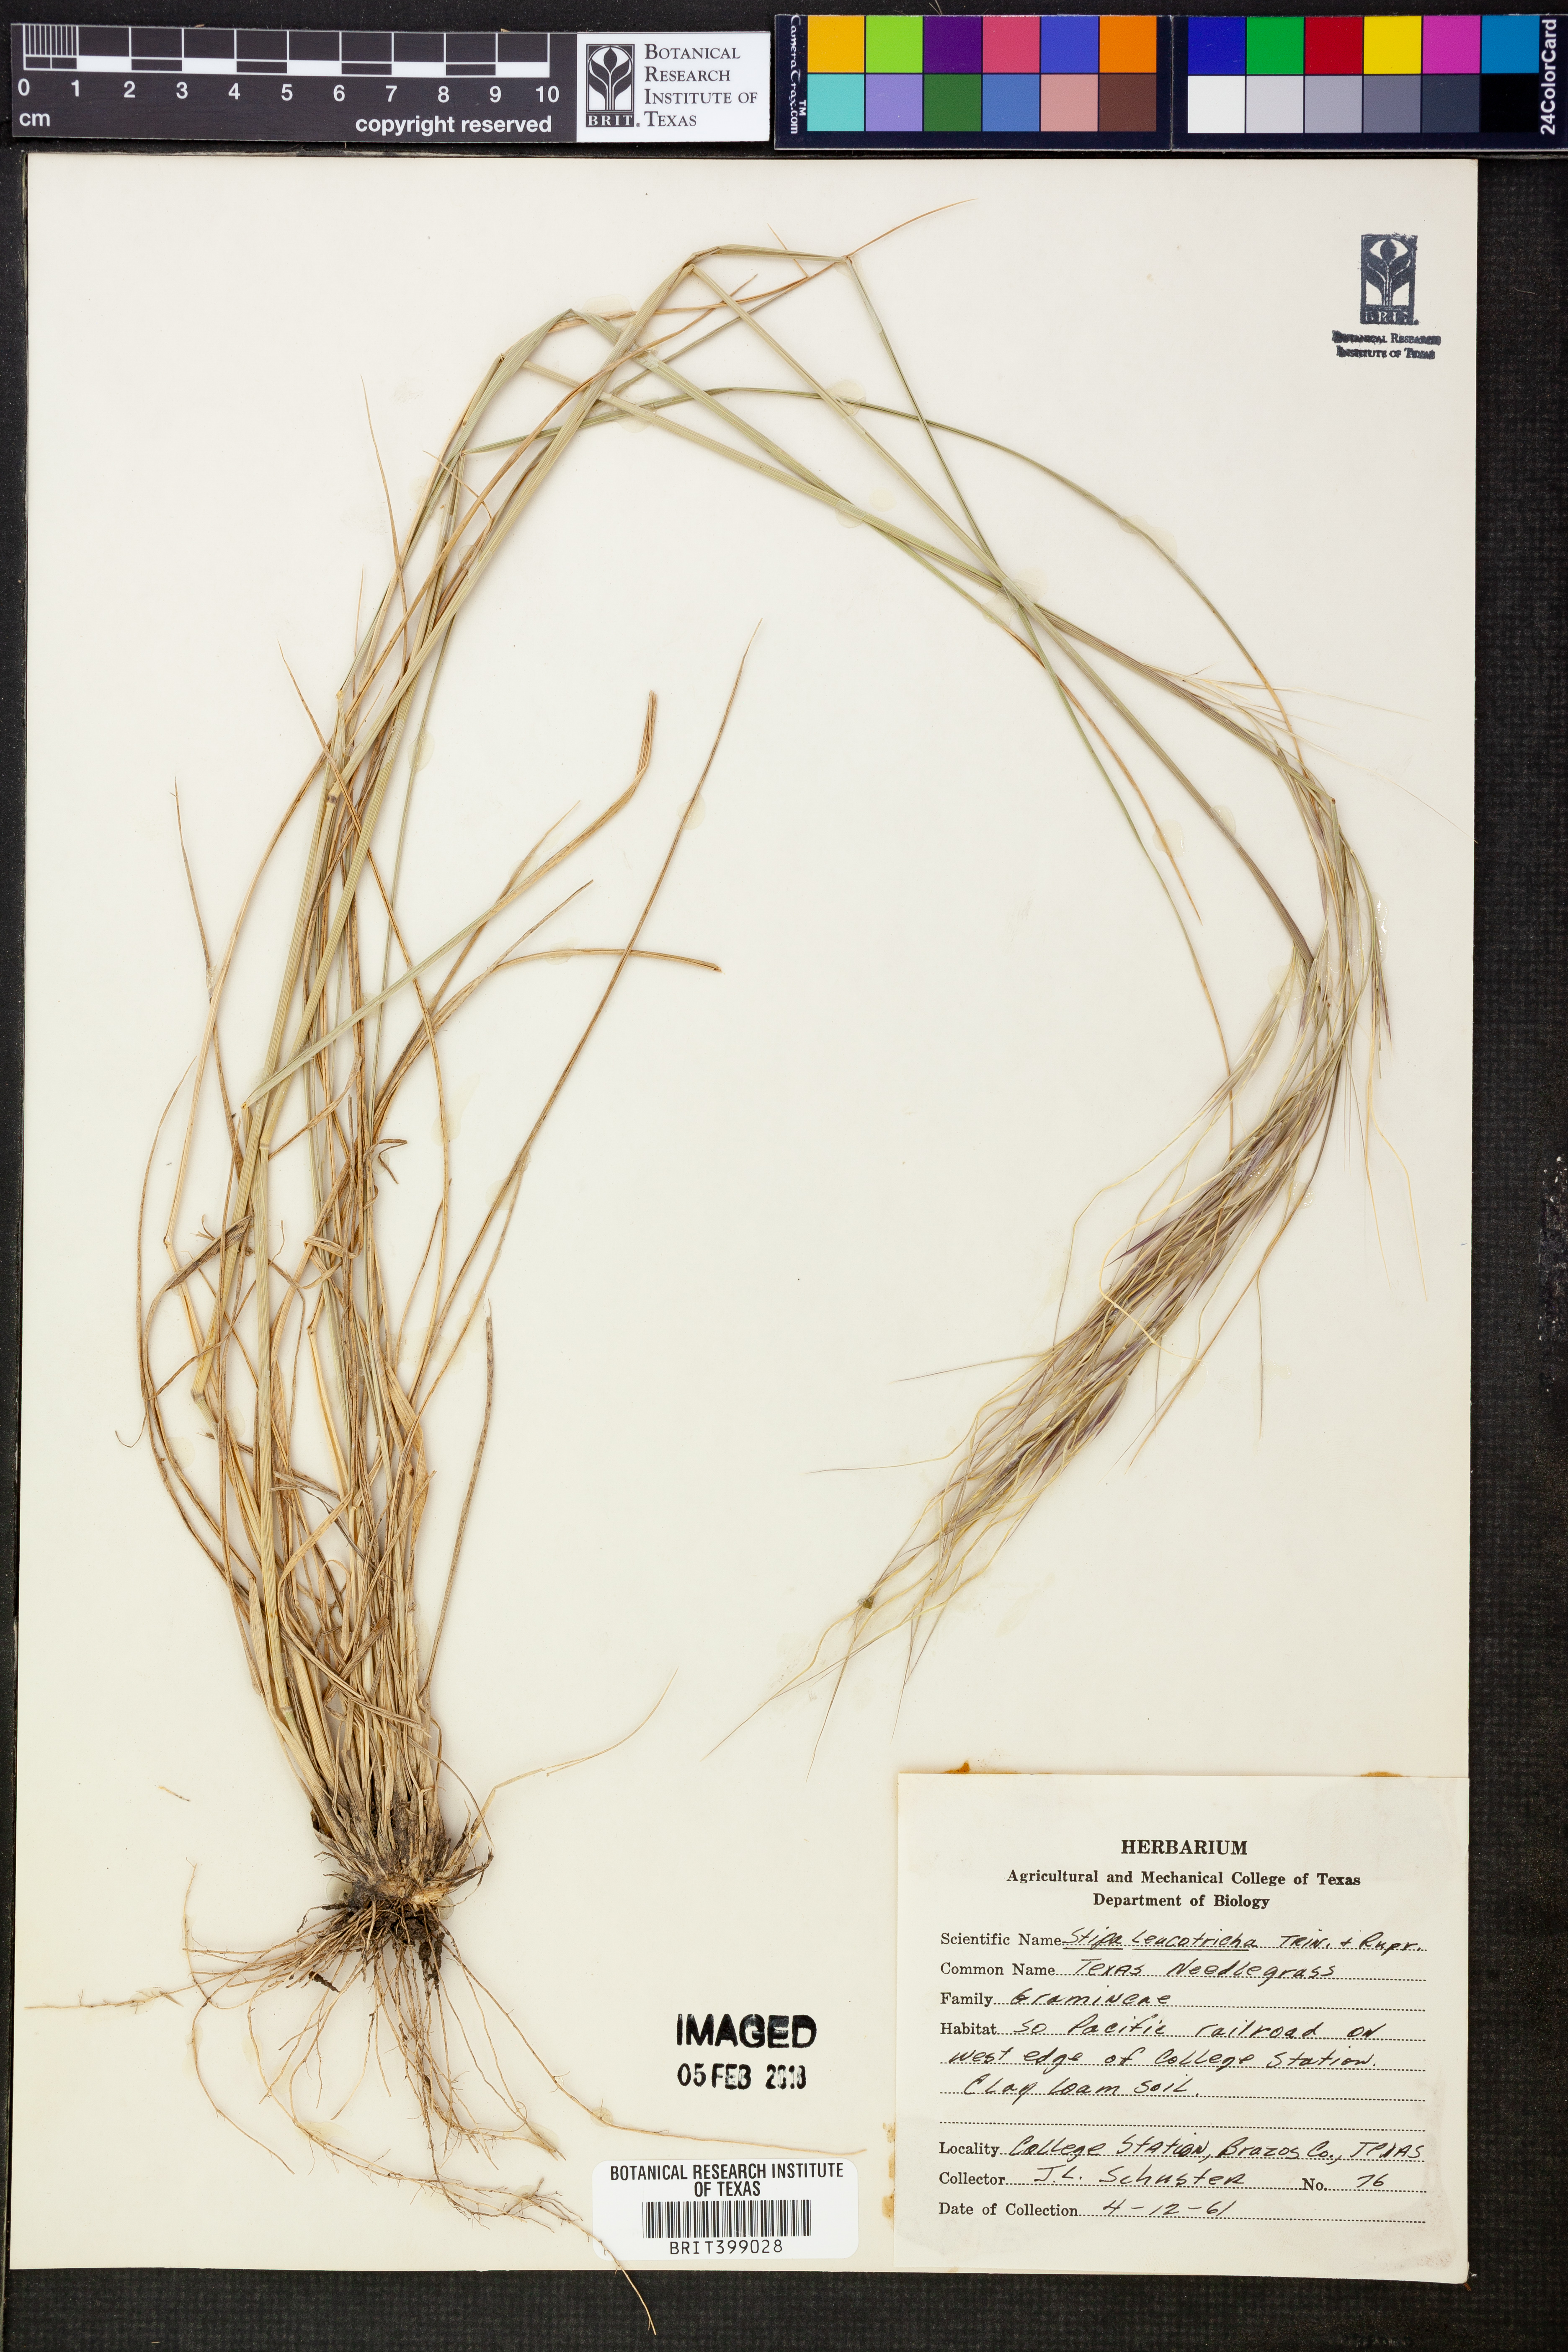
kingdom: Plantae
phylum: Tracheophyta
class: Liliopsida
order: Poales
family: Poaceae
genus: Nassella
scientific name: Nassella leucotricha
